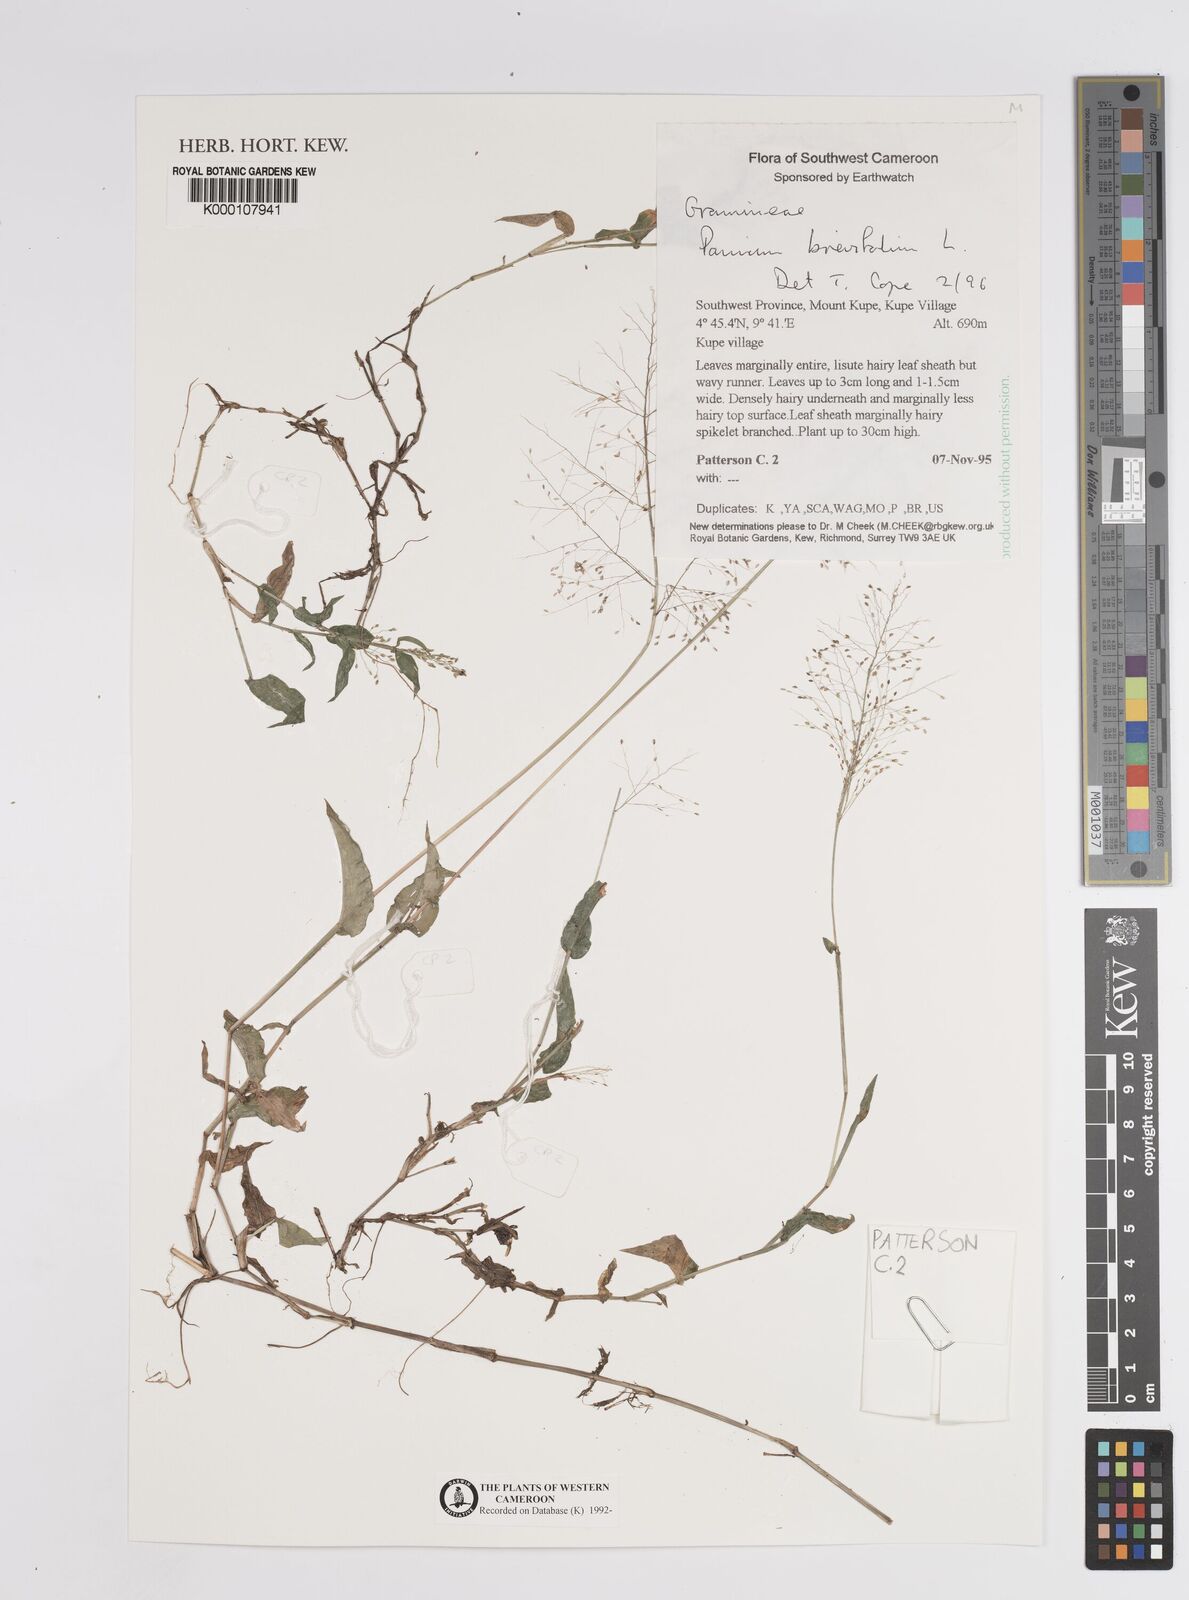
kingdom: Plantae
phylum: Tracheophyta
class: Liliopsida
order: Poales
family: Poaceae
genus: Panicum
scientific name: Panicum brevifolium
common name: Shortleaf panic grass
